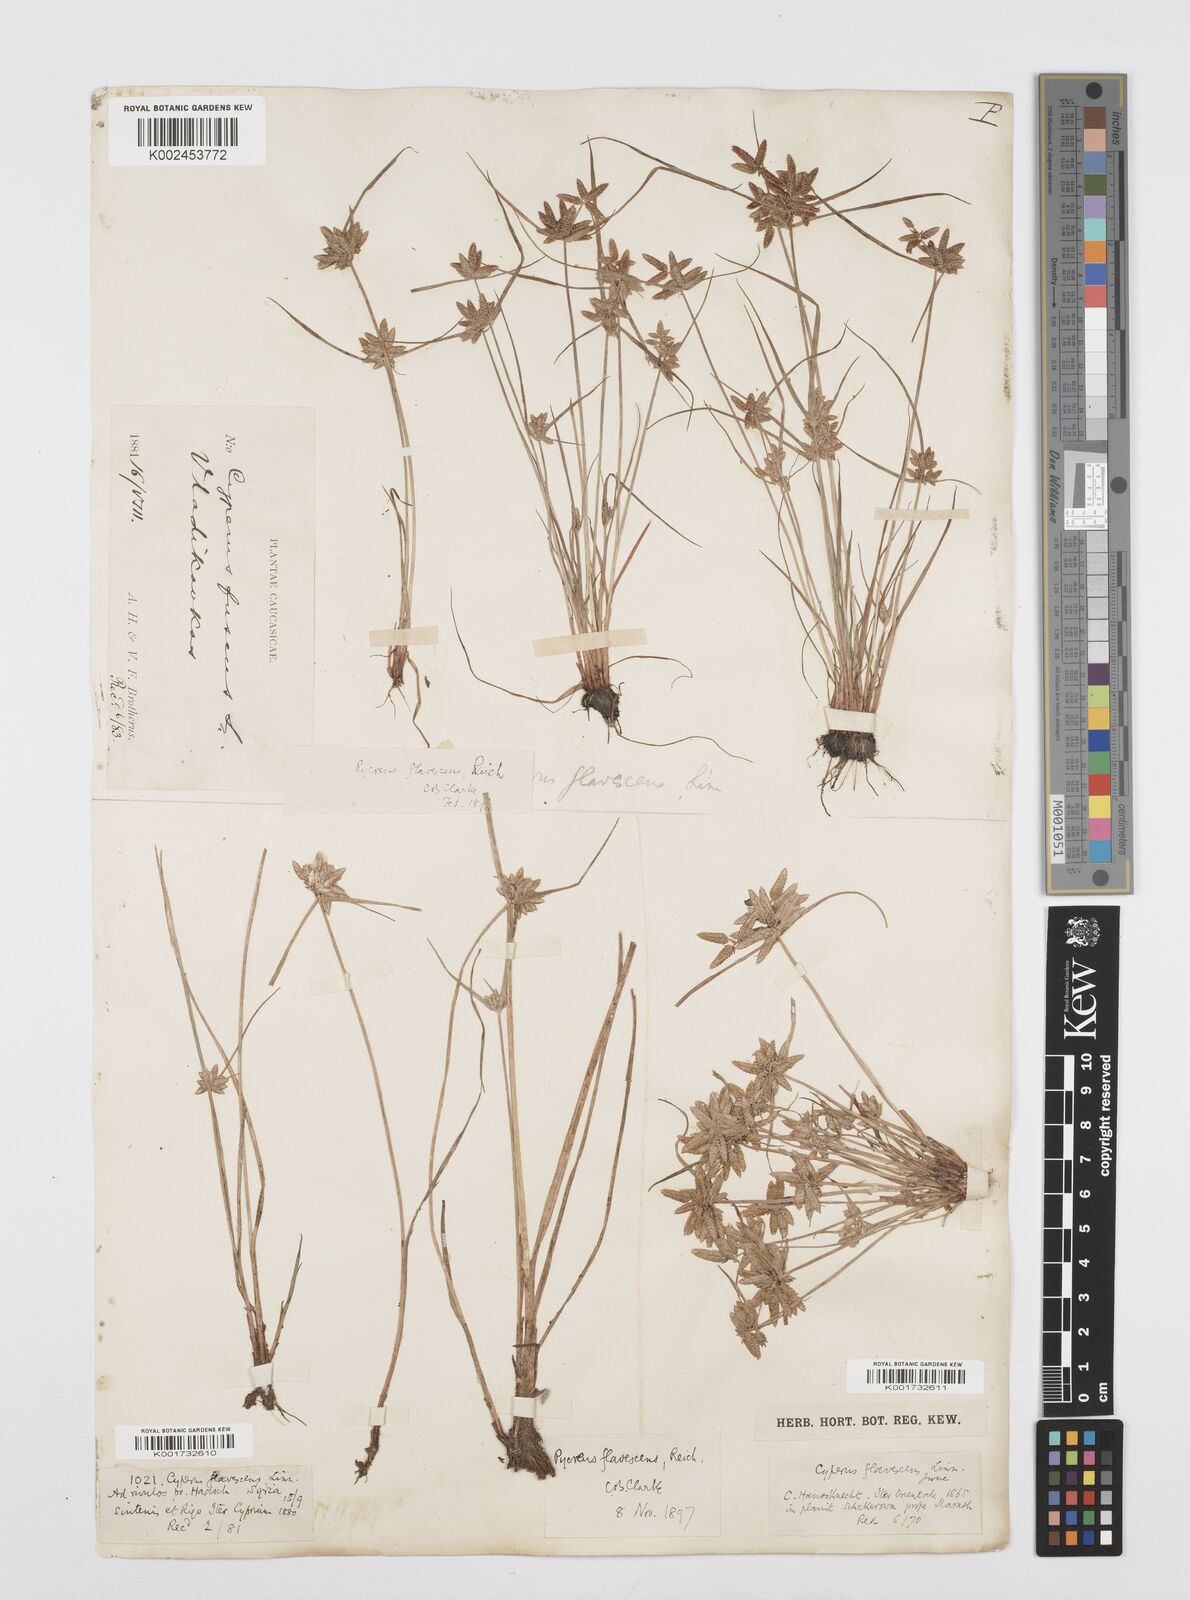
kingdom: Plantae
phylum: Tracheophyta
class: Liliopsida
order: Poales
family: Cyperaceae
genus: Cyperus
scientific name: Cyperus flavescens
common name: Yellow galingale
